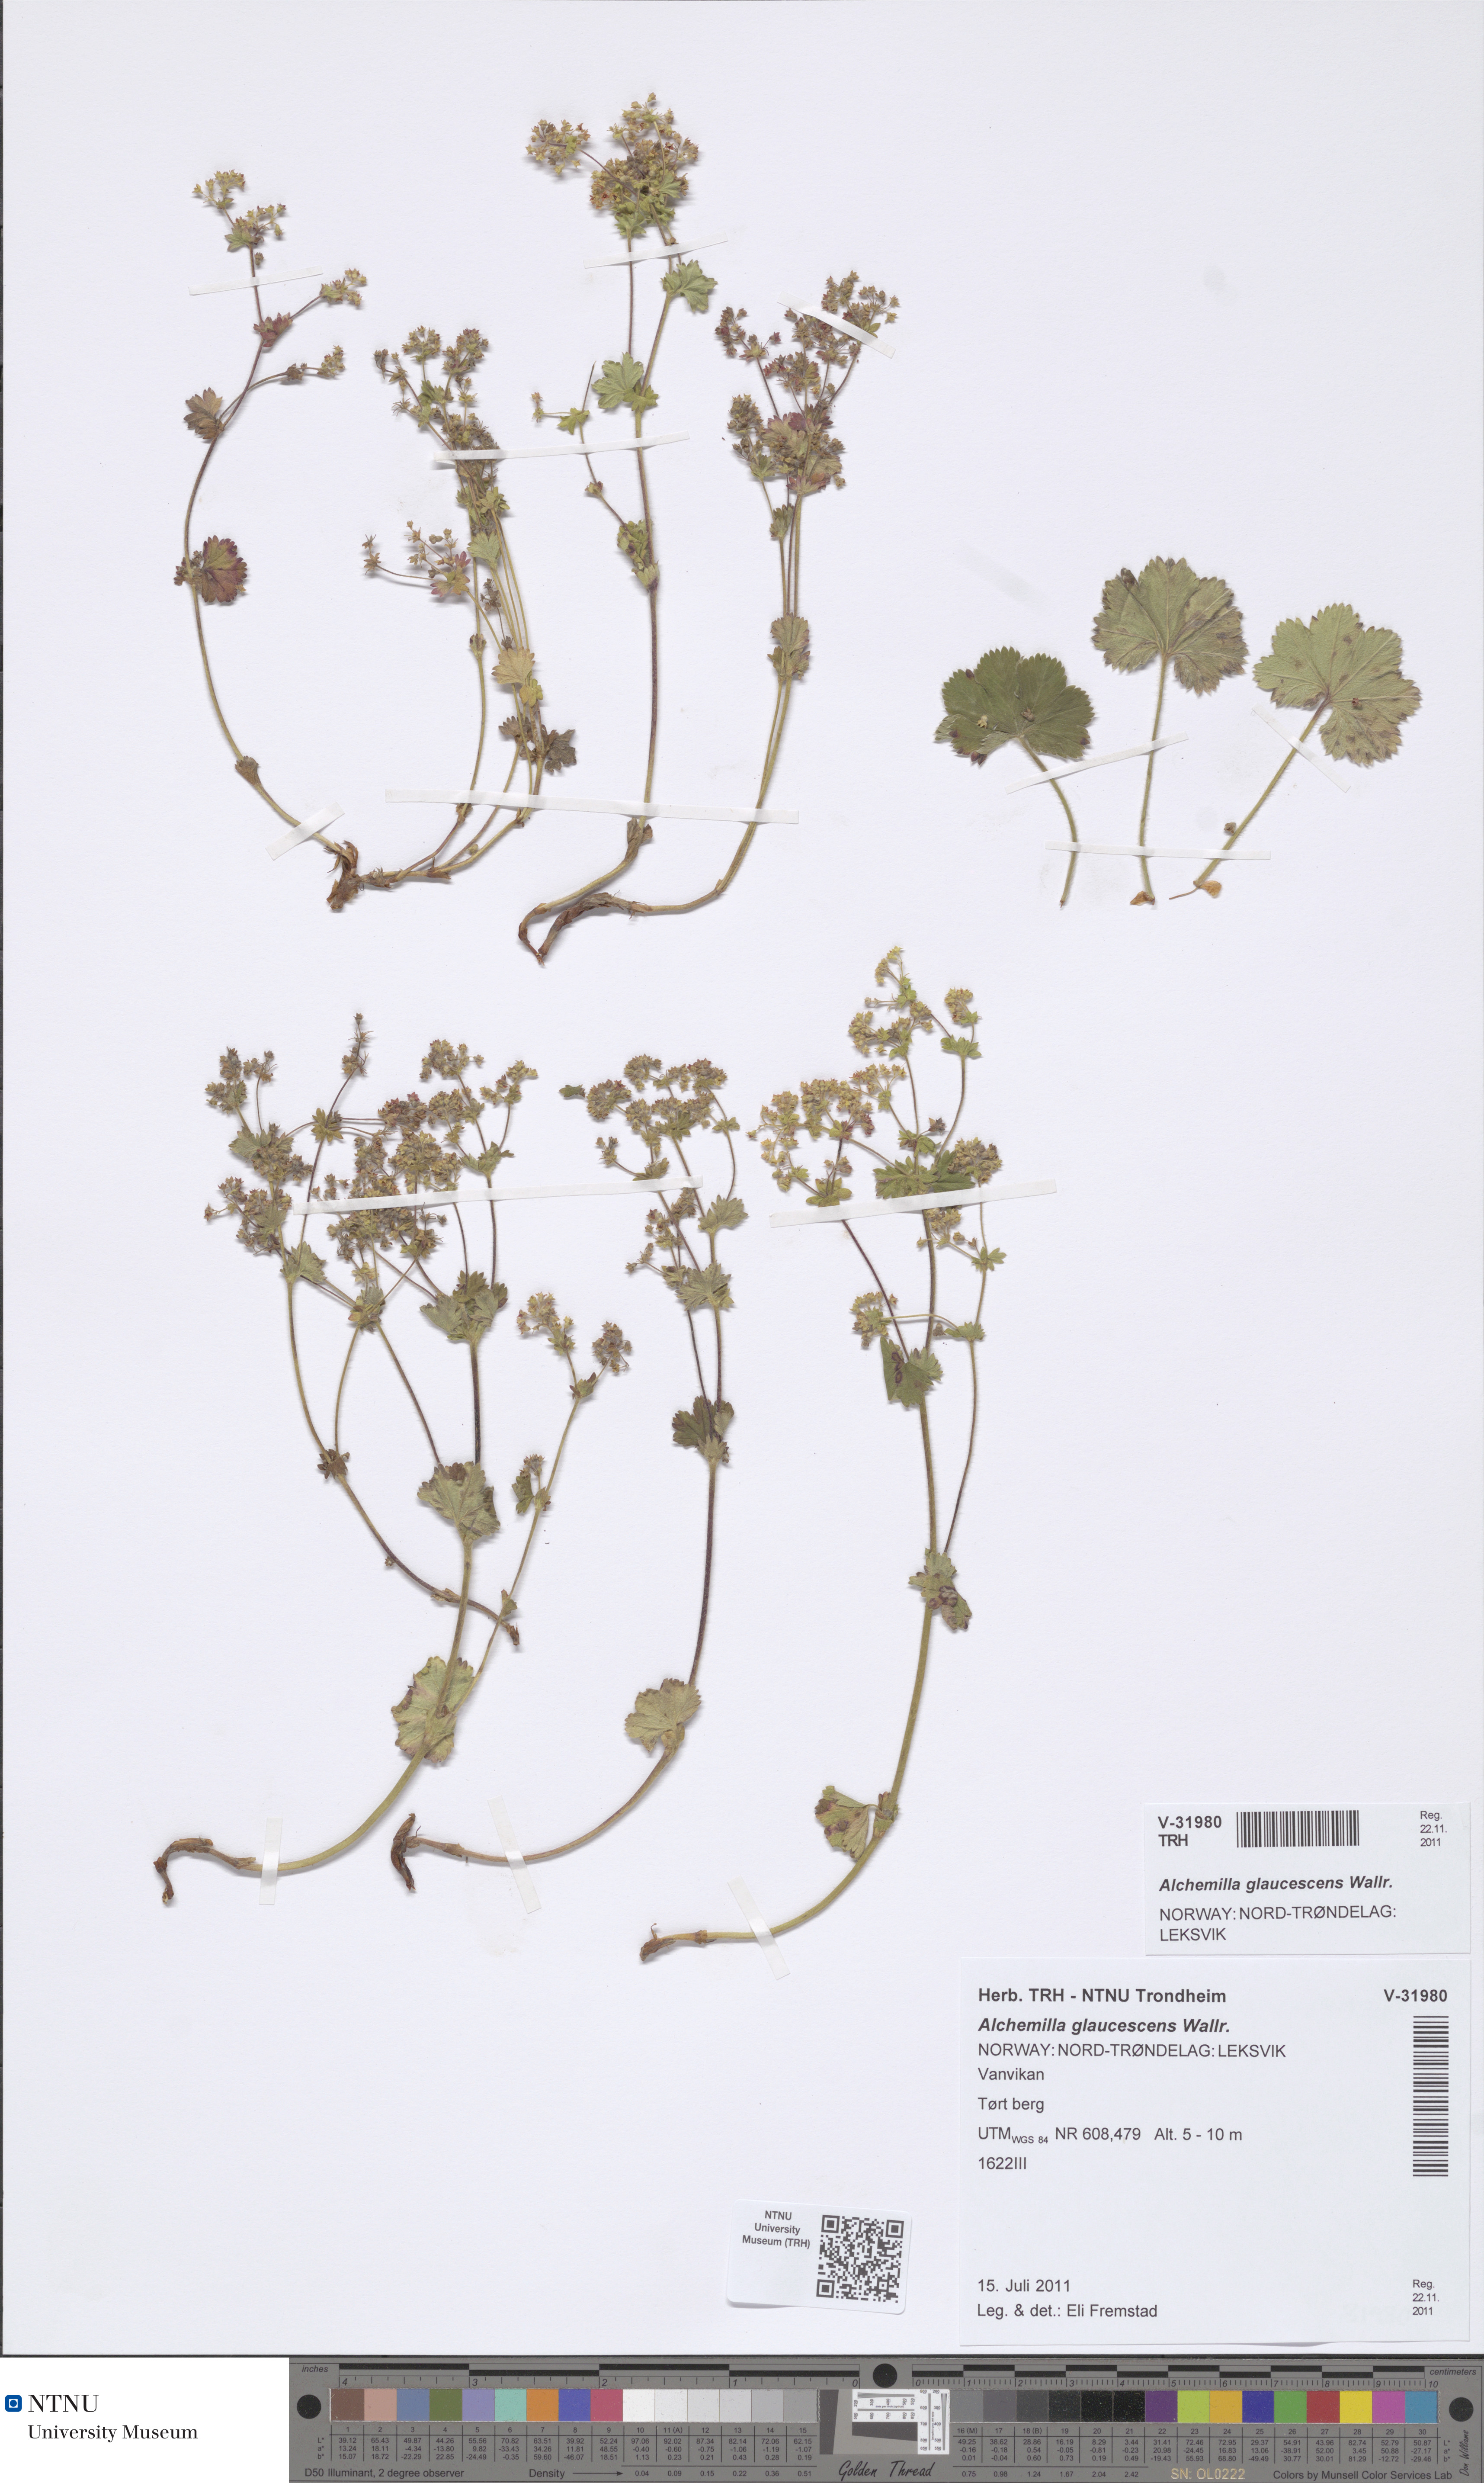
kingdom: Plantae
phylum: Tracheophyta
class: Magnoliopsida
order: Rosales
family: Rosaceae
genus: Alchemilla
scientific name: Alchemilla glaucescens
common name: Silky lady's mantle
